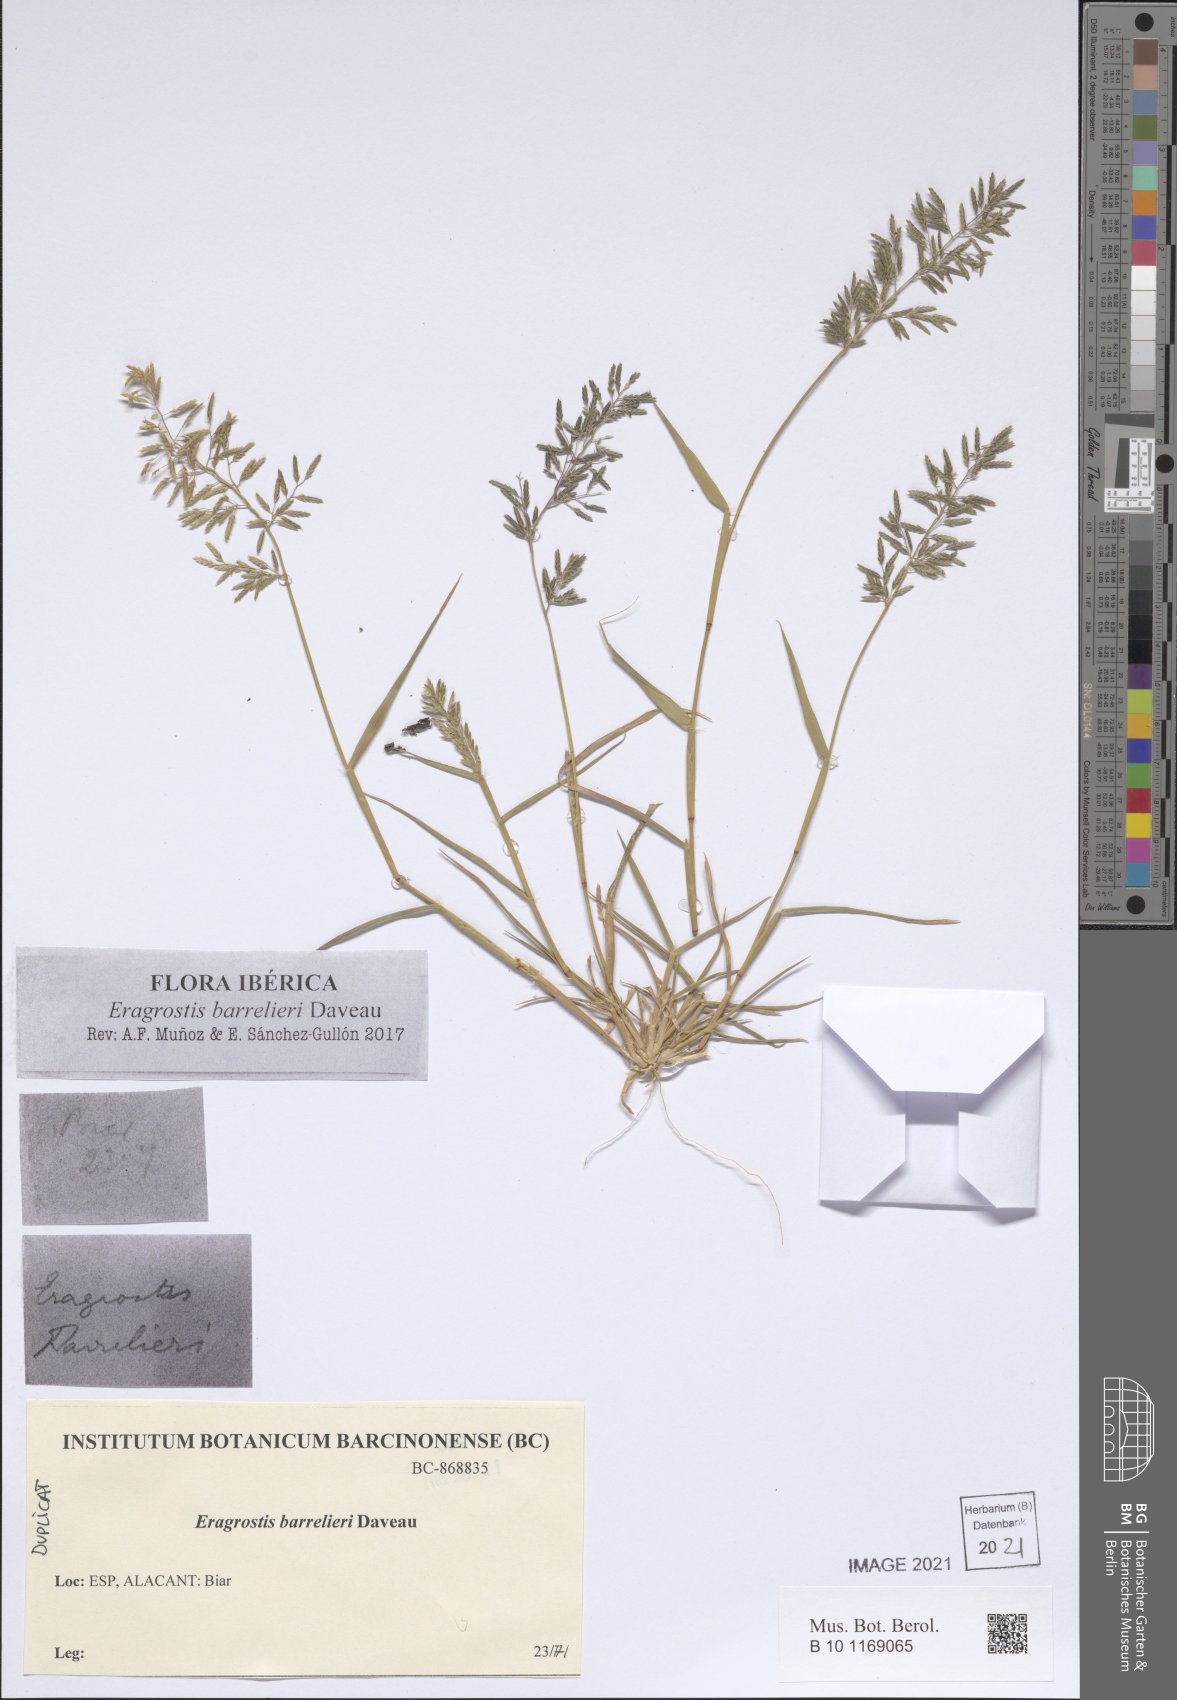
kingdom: Plantae
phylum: Tracheophyta
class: Liliopsida
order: Poales
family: Poaceae
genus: Eragrostis
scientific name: Eragrostis barrelieri
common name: Mediterranean lovegrass
